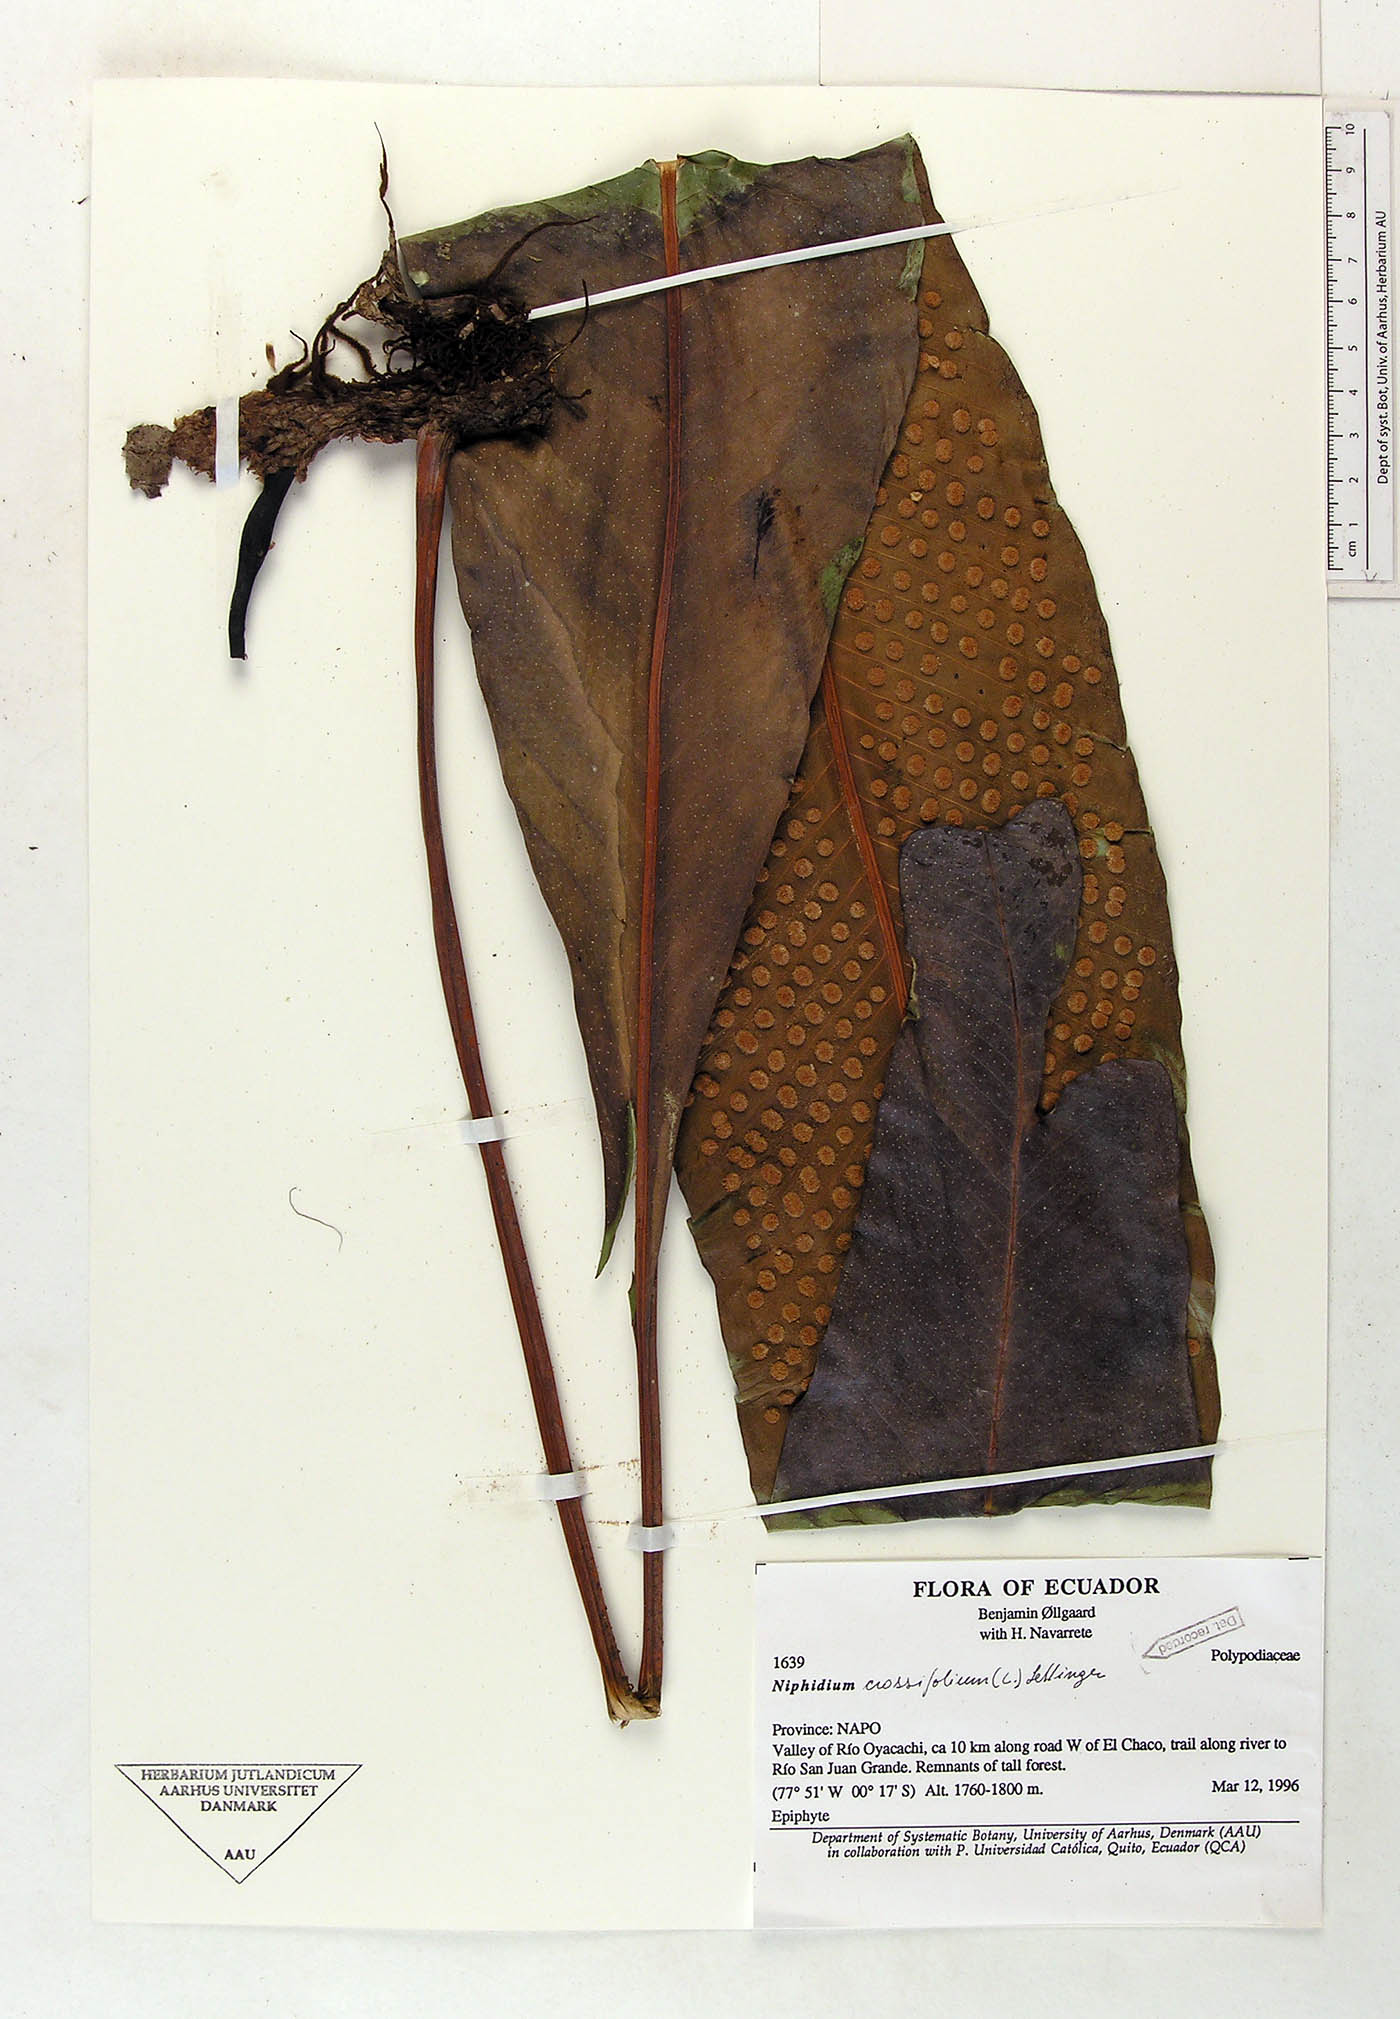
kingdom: Plantae
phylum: Tracheophyta
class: Polypodiopsida
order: Polypodiales
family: Polypodiaceae
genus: Niphidium
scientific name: Niphidium crassifolium
